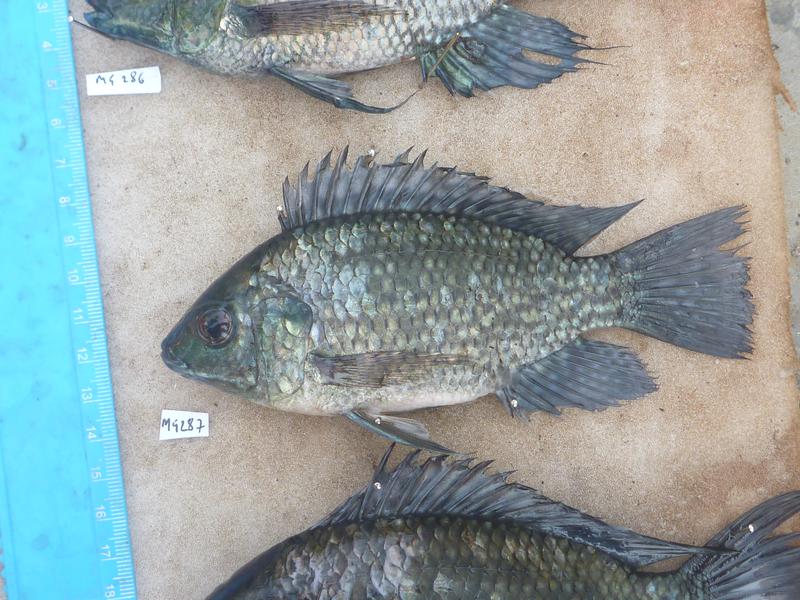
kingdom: Animalia
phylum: Chordata
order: Perciformes
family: Cichlidae
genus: Oreochromis
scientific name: Oreochromis leucostictus
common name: Blue spotted tilapia
